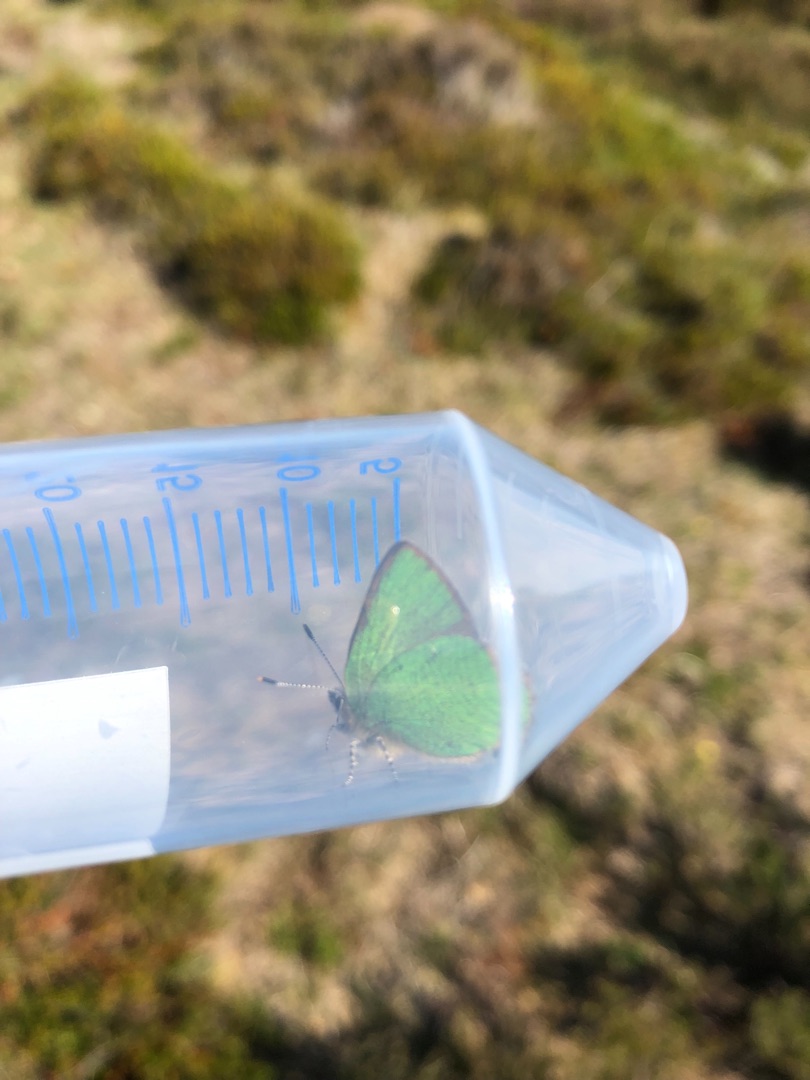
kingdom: Animalia
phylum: Arthropoda
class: Insecta
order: Lepidoptera
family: Lycaenidae
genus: Callophrys
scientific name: Callophrys rubi
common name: Grøn busksommerfugl
